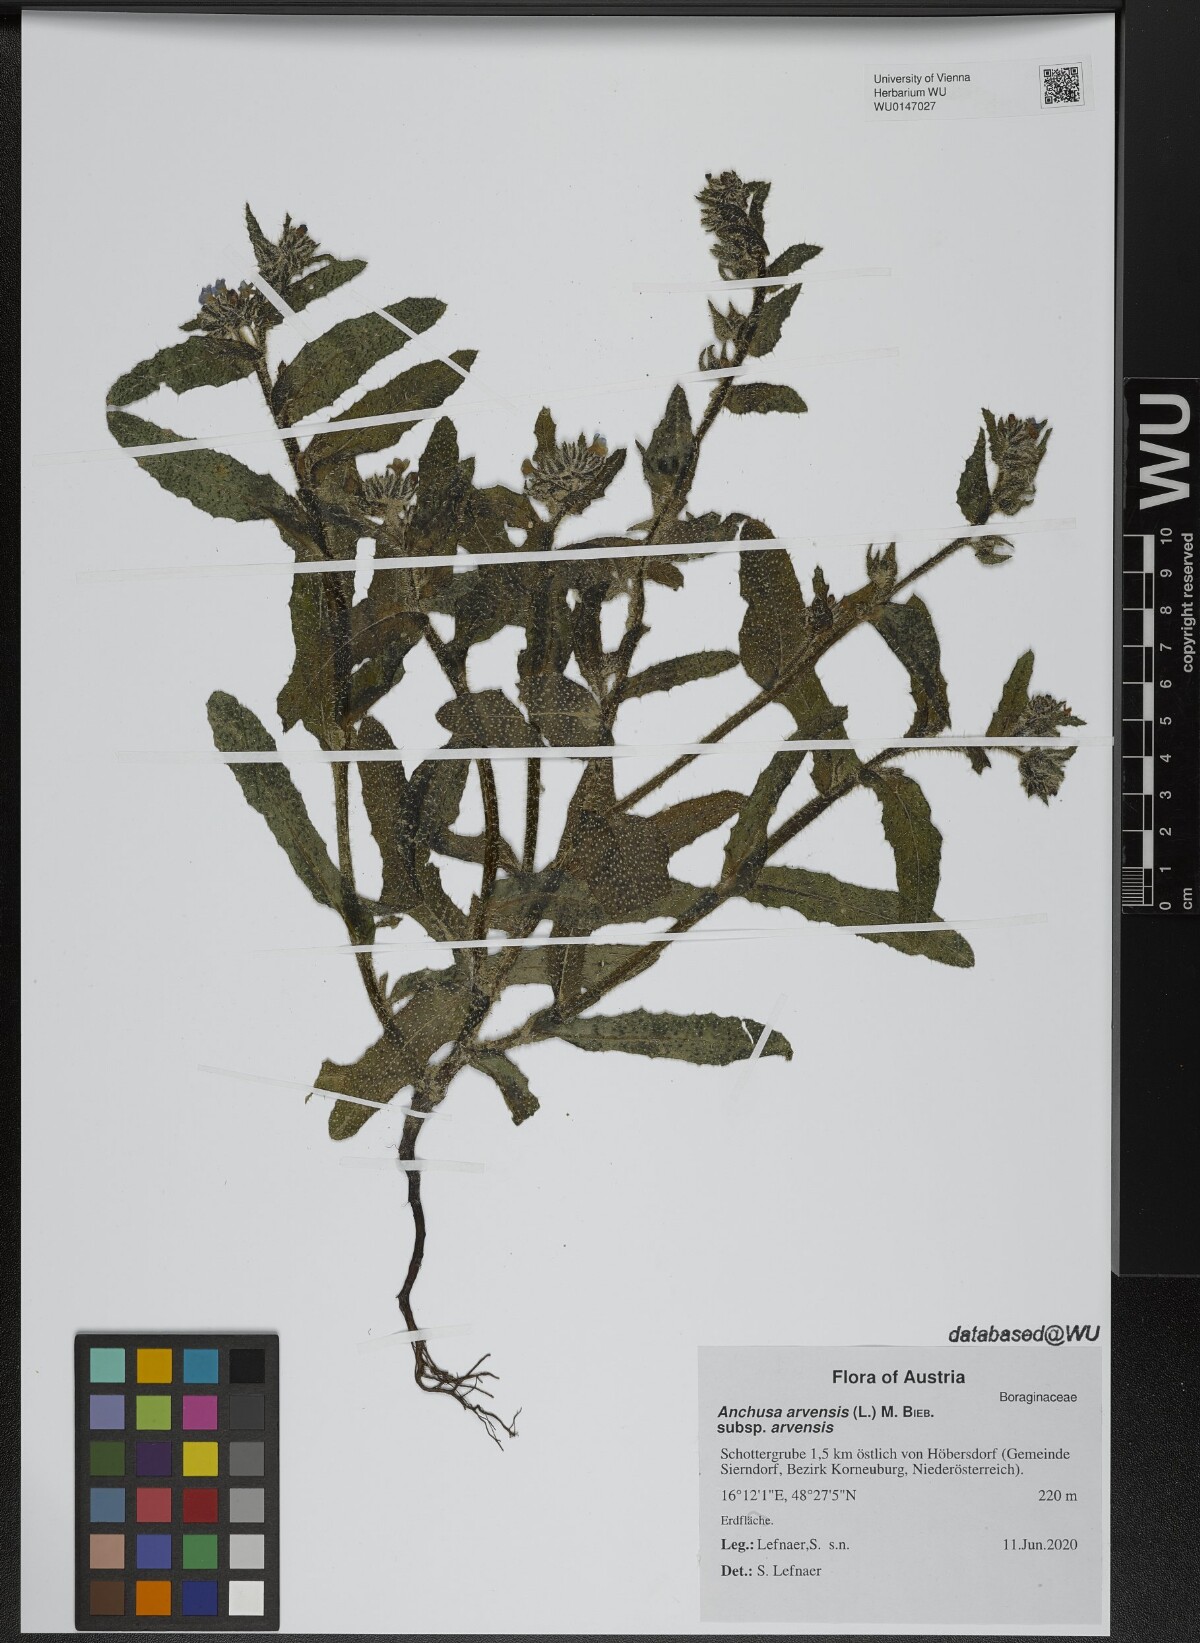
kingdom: Plantae
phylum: Tracheophyta
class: Magnoliopsida
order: Boraginales
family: Boraginaceae
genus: Lycopsis
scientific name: Lycopsis arvensis
